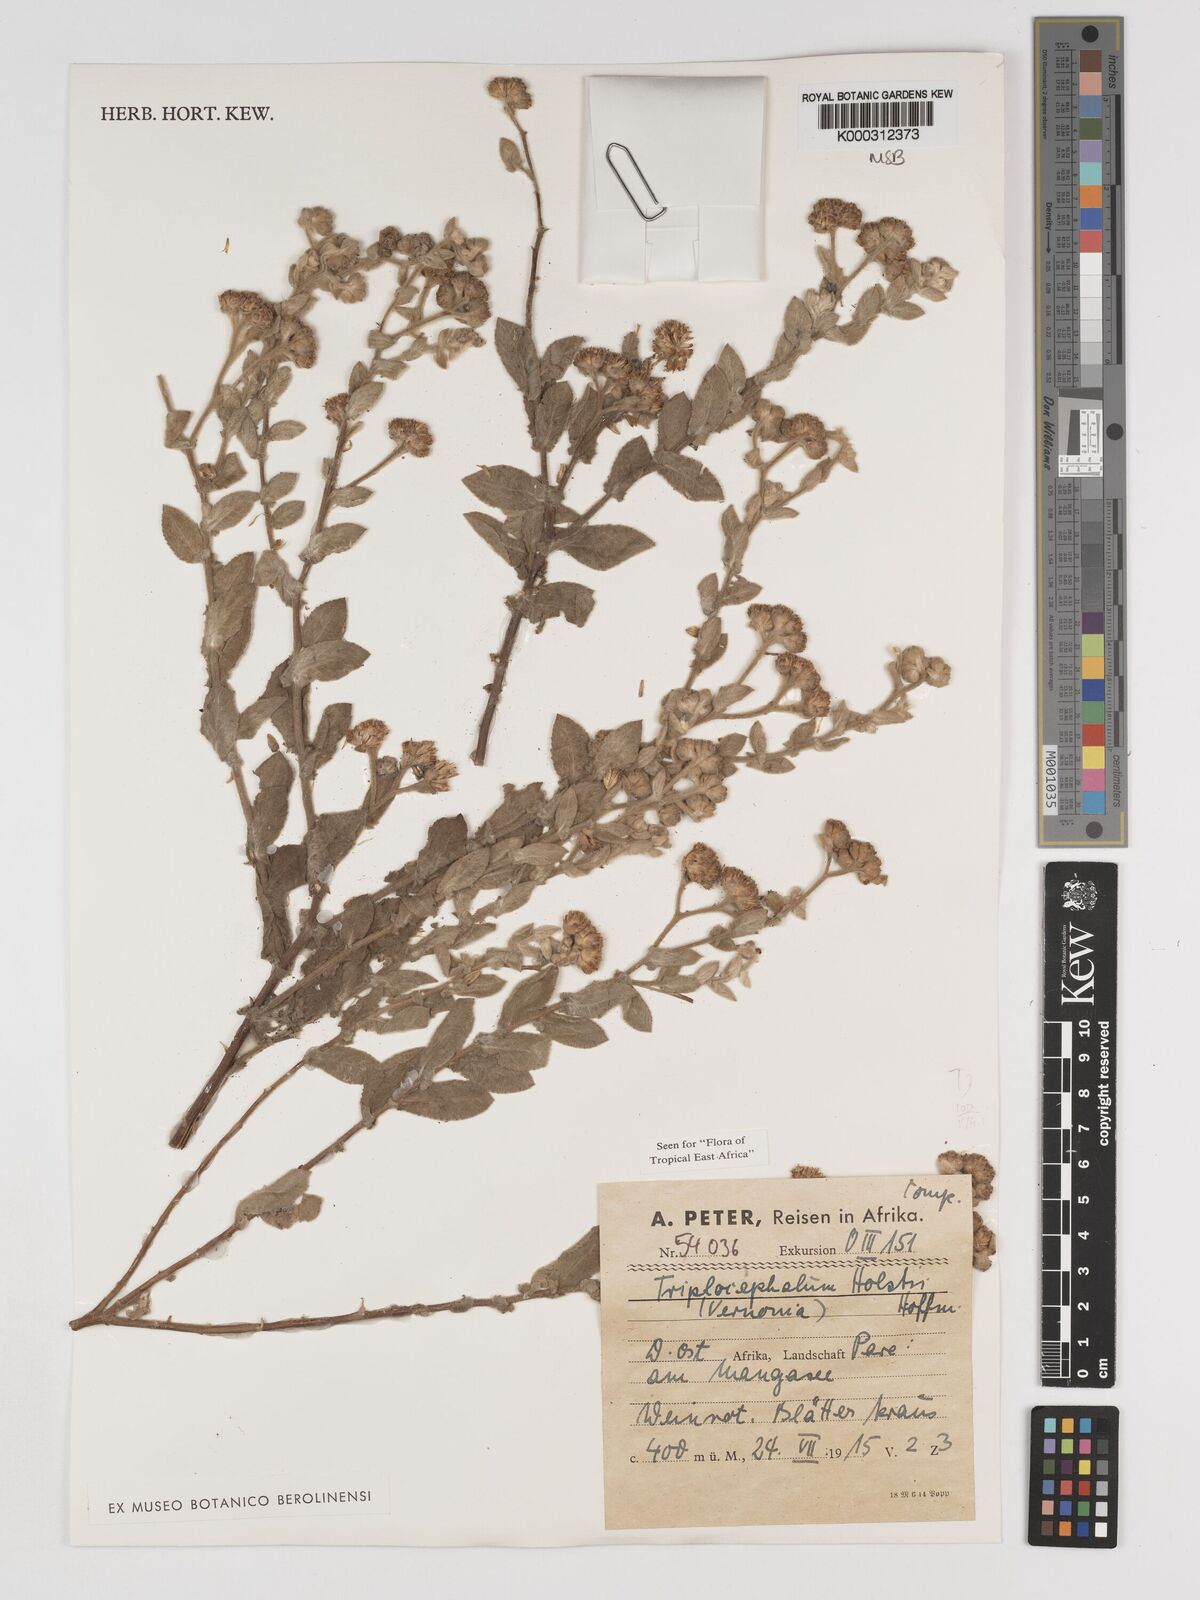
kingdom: Plantae
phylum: Tracheophyta
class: Magnoliopsida
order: Asterales
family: Asteraceae
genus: Triplocephalum
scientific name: Triplocephalum holstii
